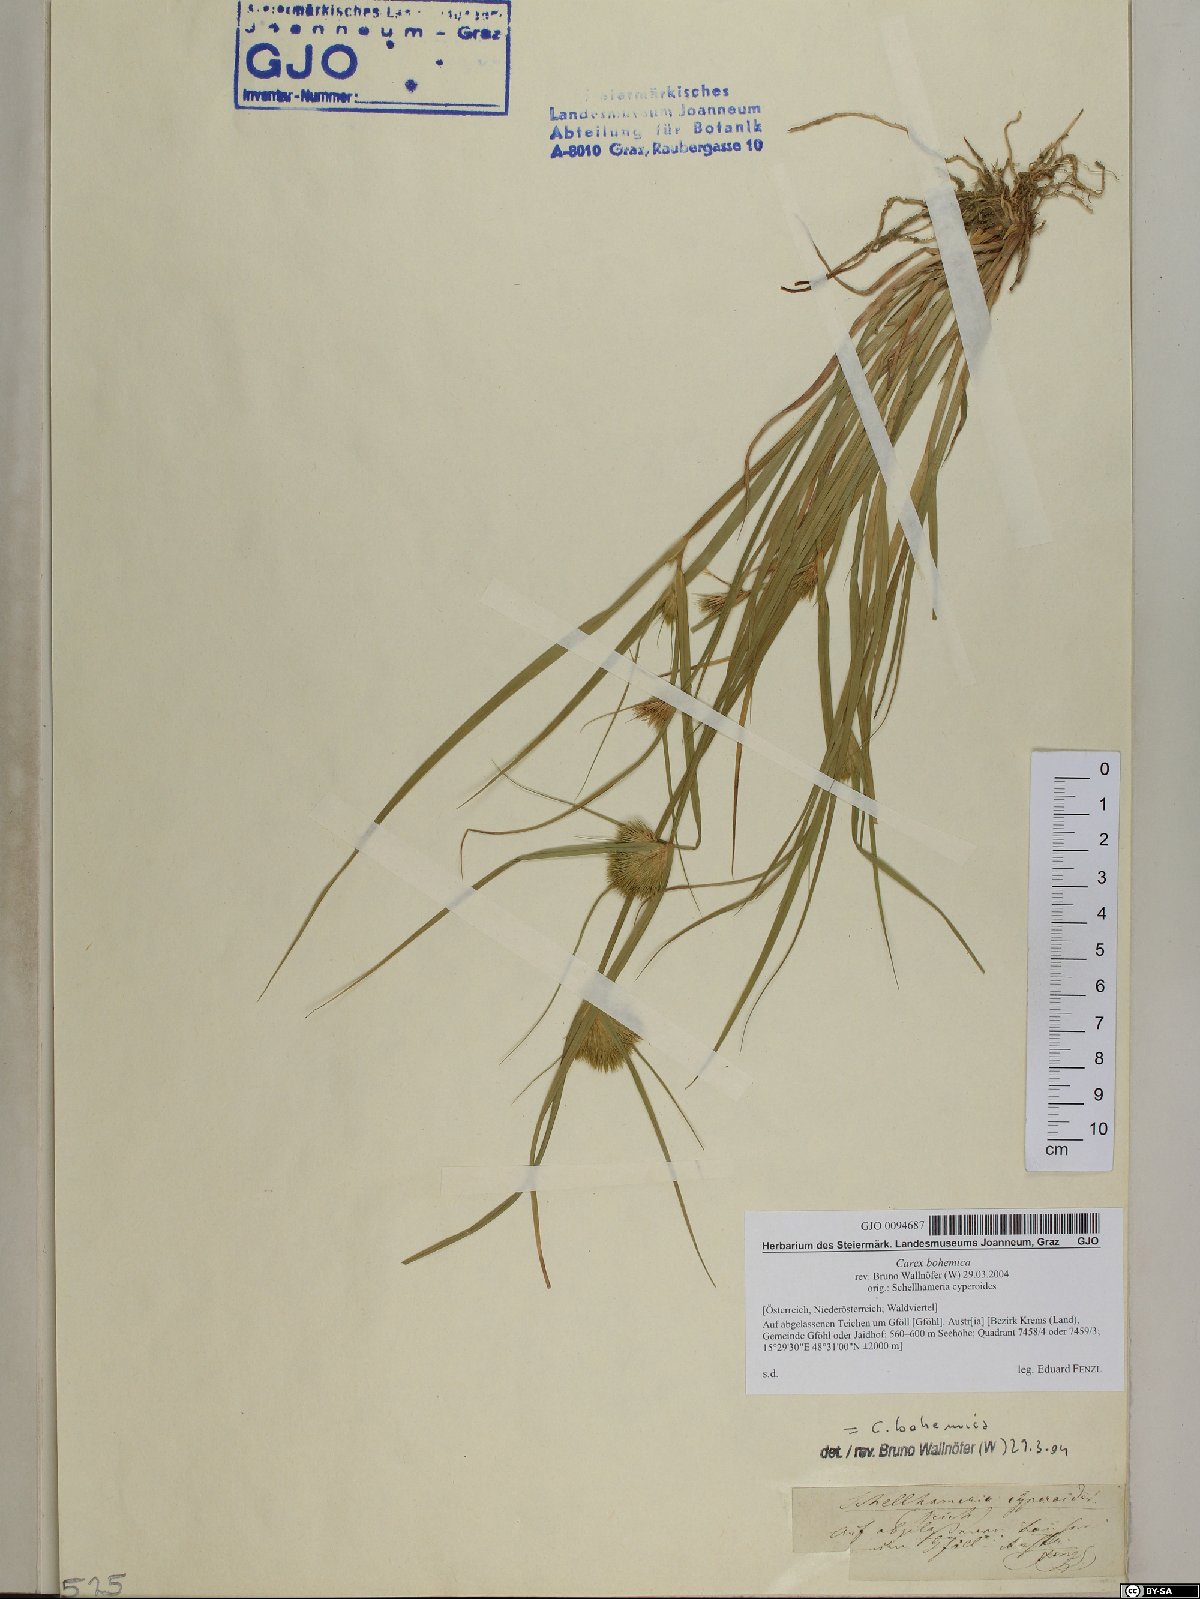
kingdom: Plantae
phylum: Tracheophyta
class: Liliopsida
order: Poales
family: Cyperaceae
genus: Carex
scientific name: Carex bohemica
